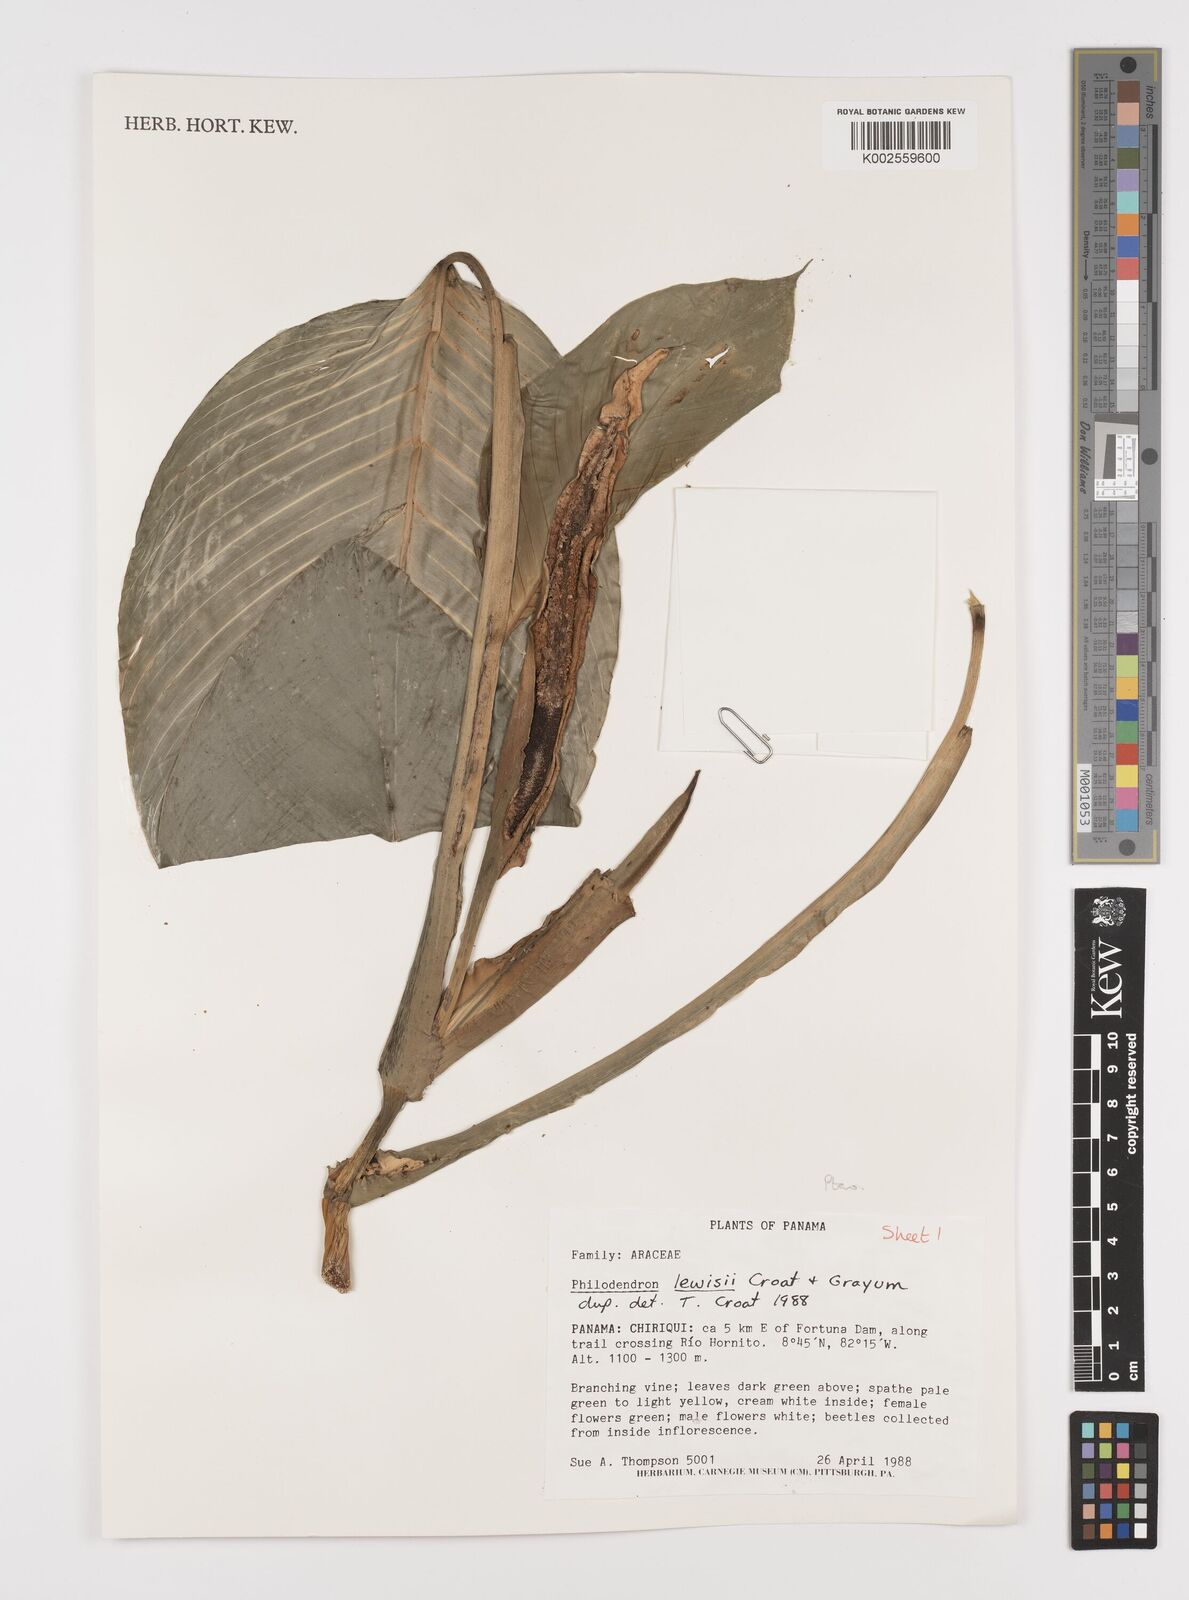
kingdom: Plantae
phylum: Tracheophyta
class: Liliopsida
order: Alismatales
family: Araceae
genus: Philodendron
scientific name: Philodendron rhodoaxis
